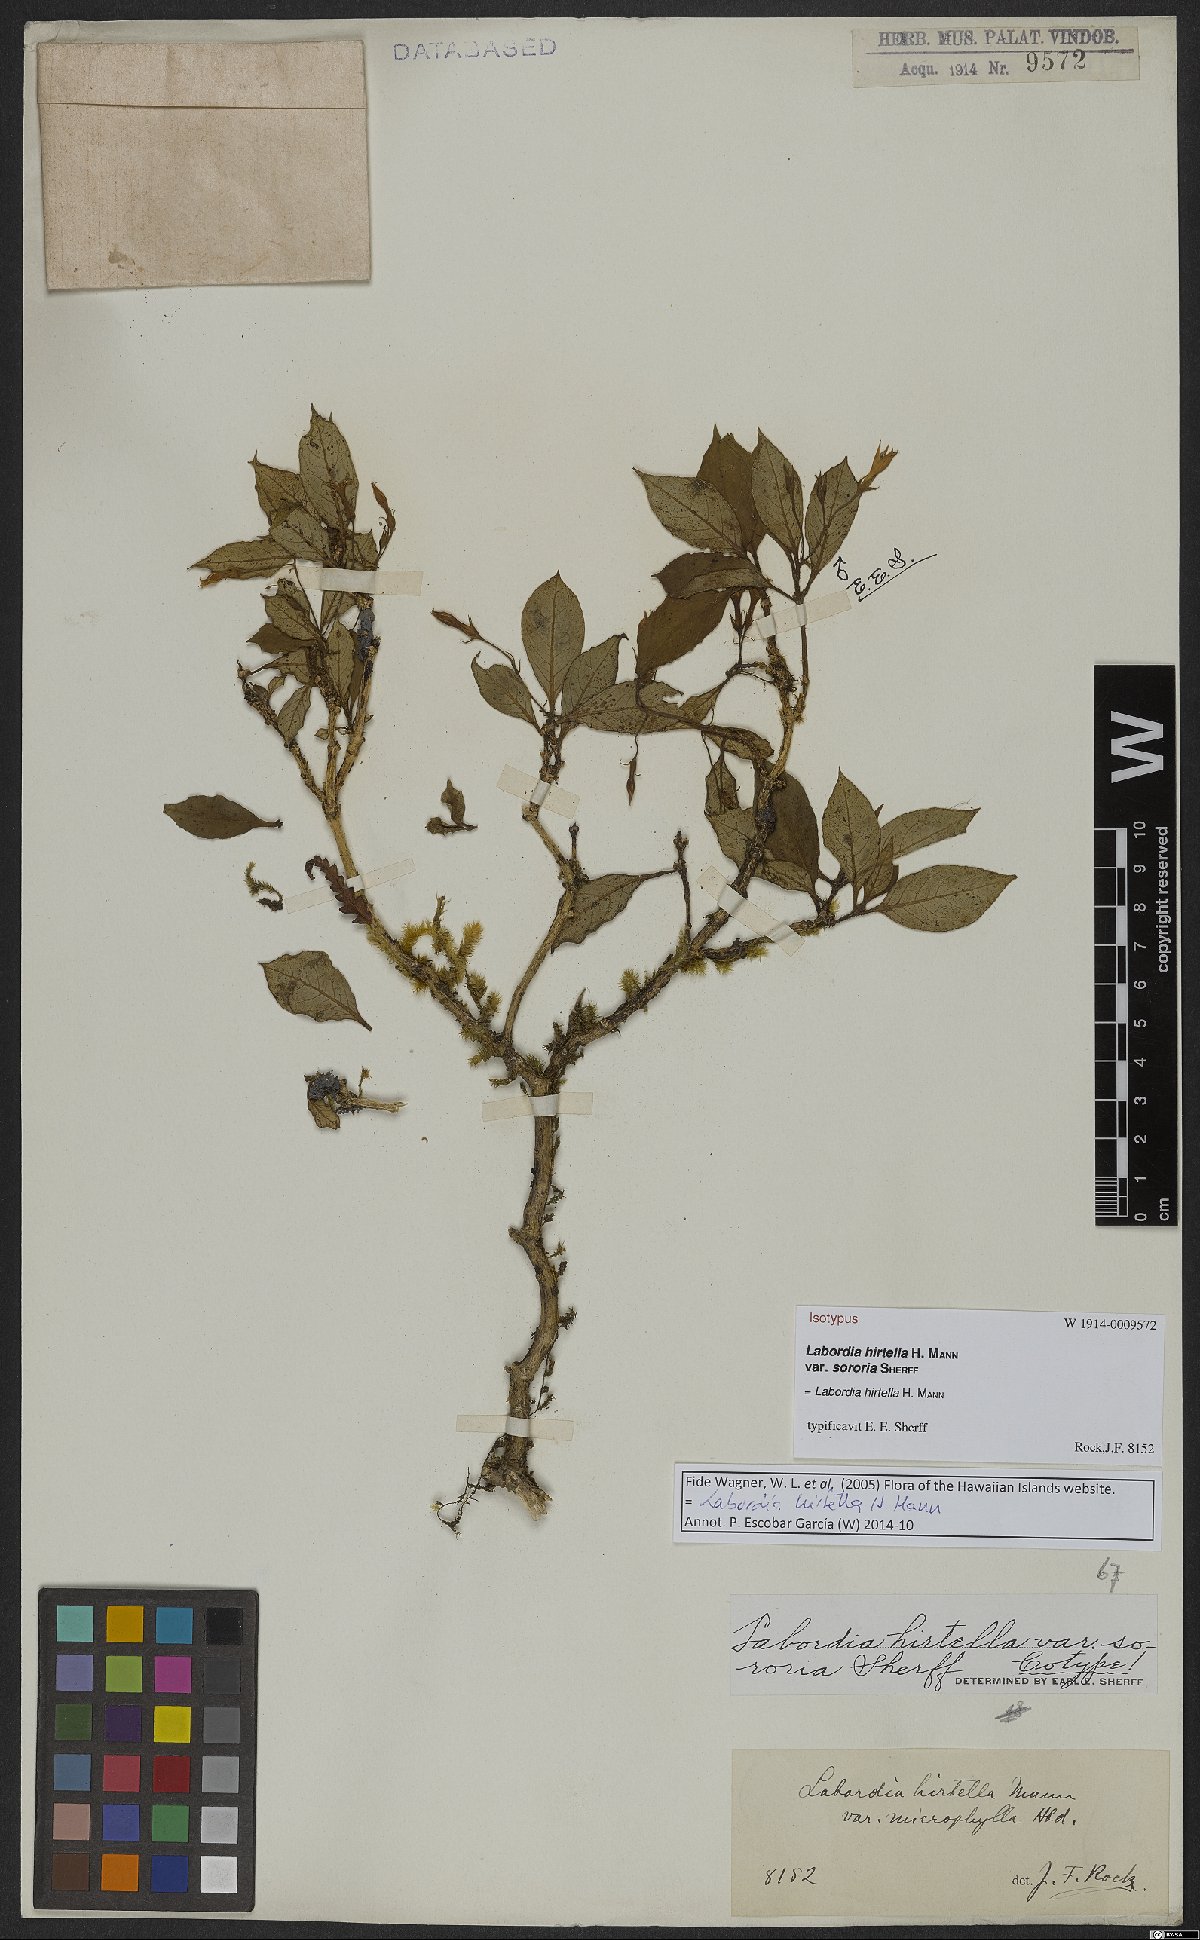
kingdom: Plantae
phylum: Tracheophyta
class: Magnoliopsida
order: Gentianales
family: Loganiaceae
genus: Geniostoma
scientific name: Geniostoma hirtellum
